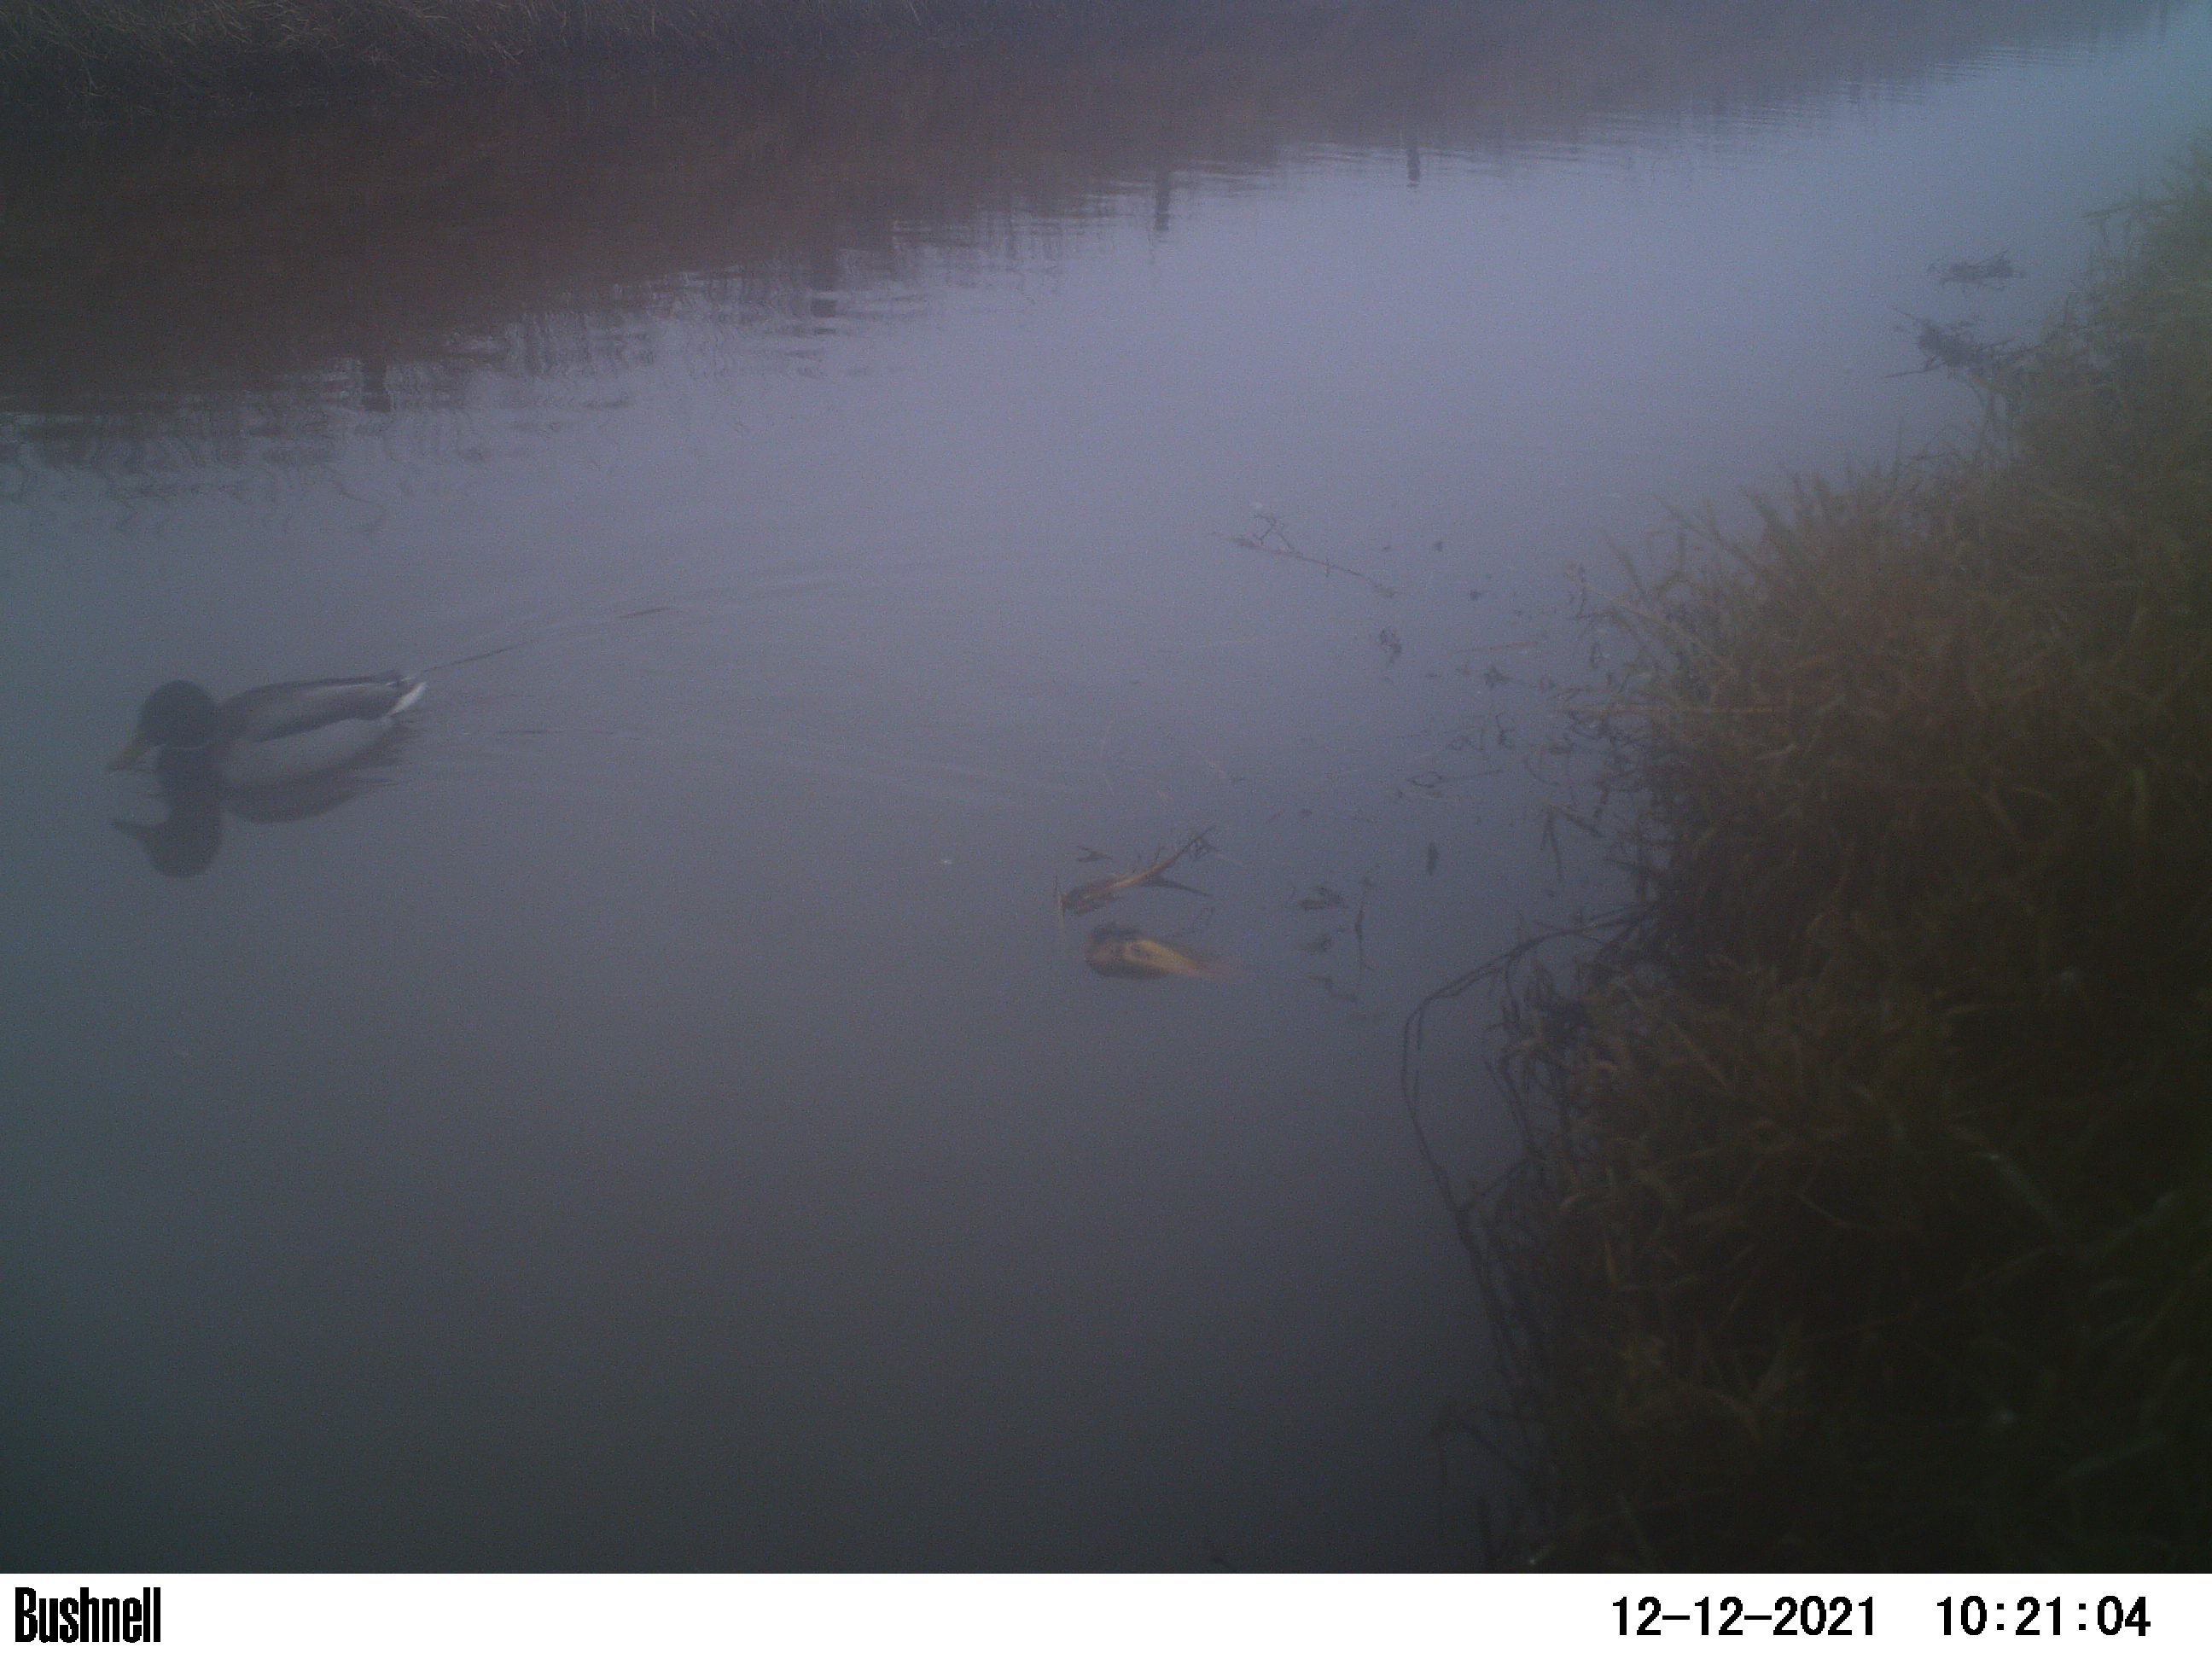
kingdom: Animalia
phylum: Chordata
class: Aves
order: Anseriformes
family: Anatidae
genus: Anas
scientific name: Anas
